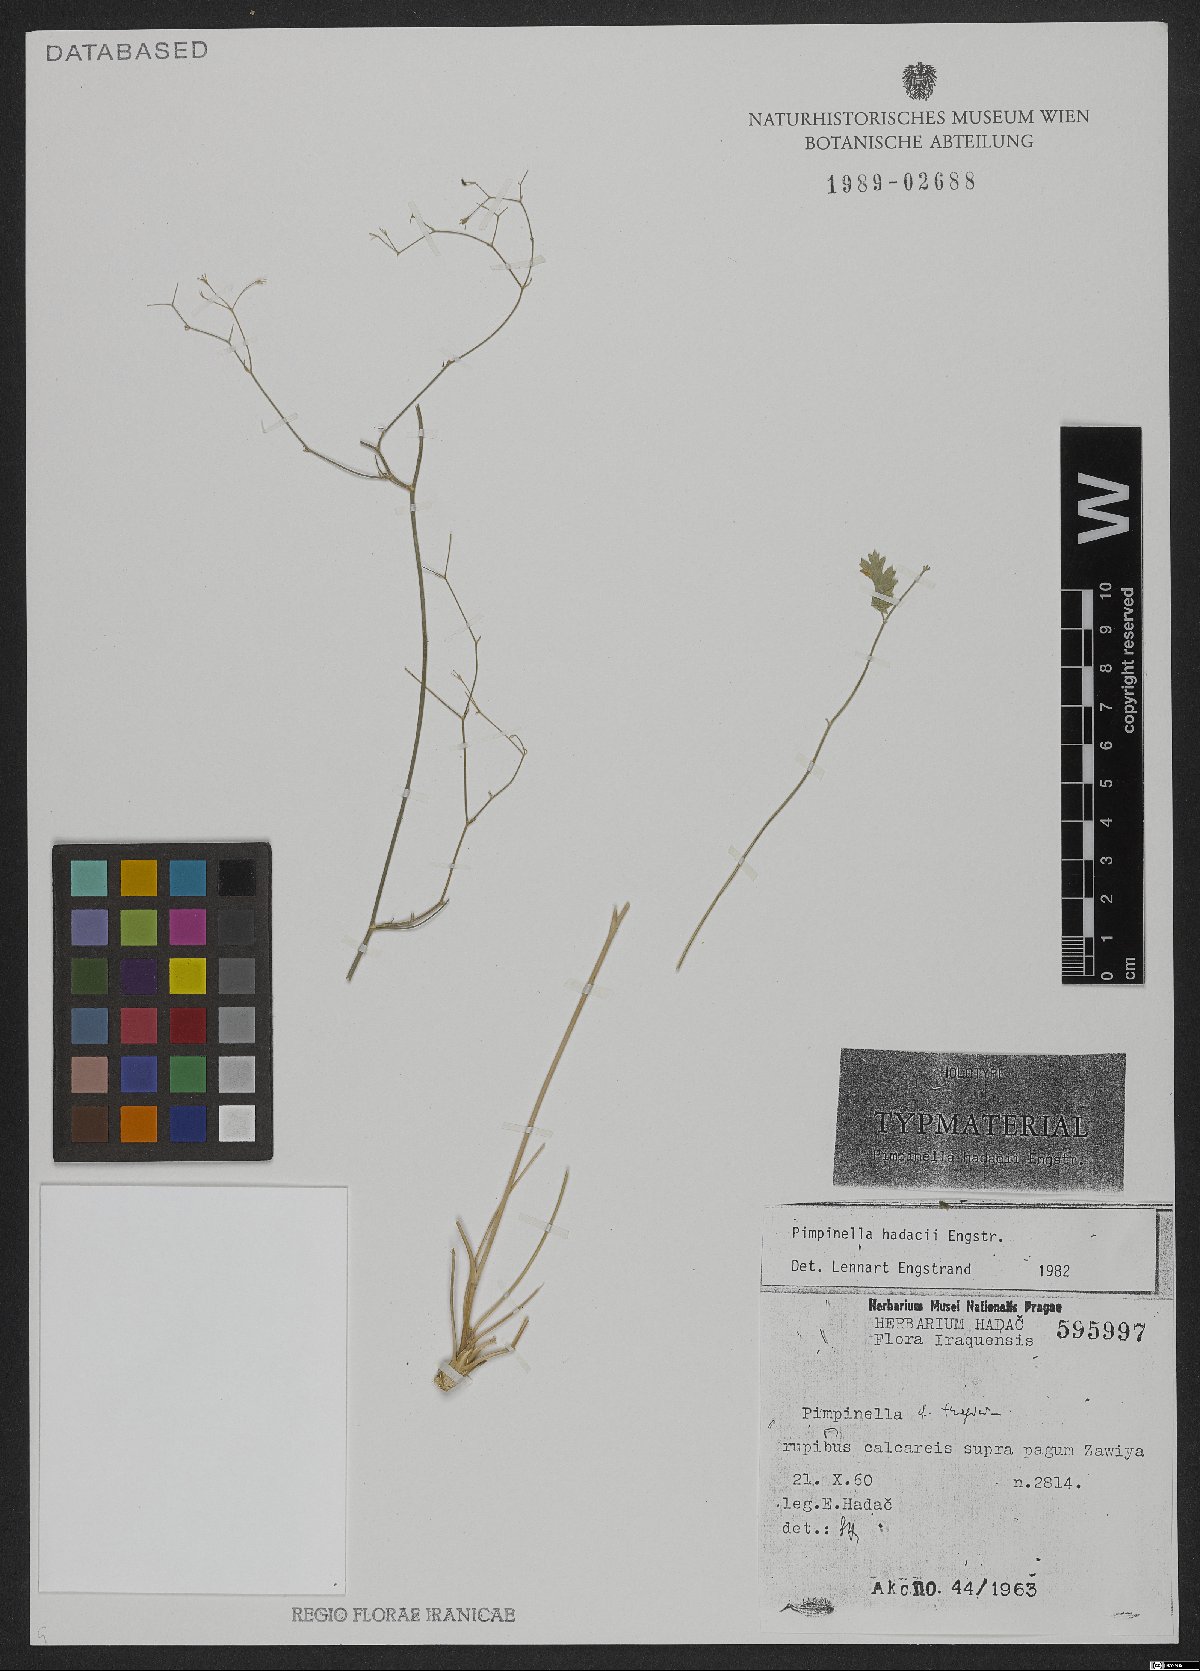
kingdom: Plantae
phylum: Tracheophyta
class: Magnoliopsida
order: Apiales
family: Apiaceae
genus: Pimpinella
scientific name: Pimpinella hadacii
